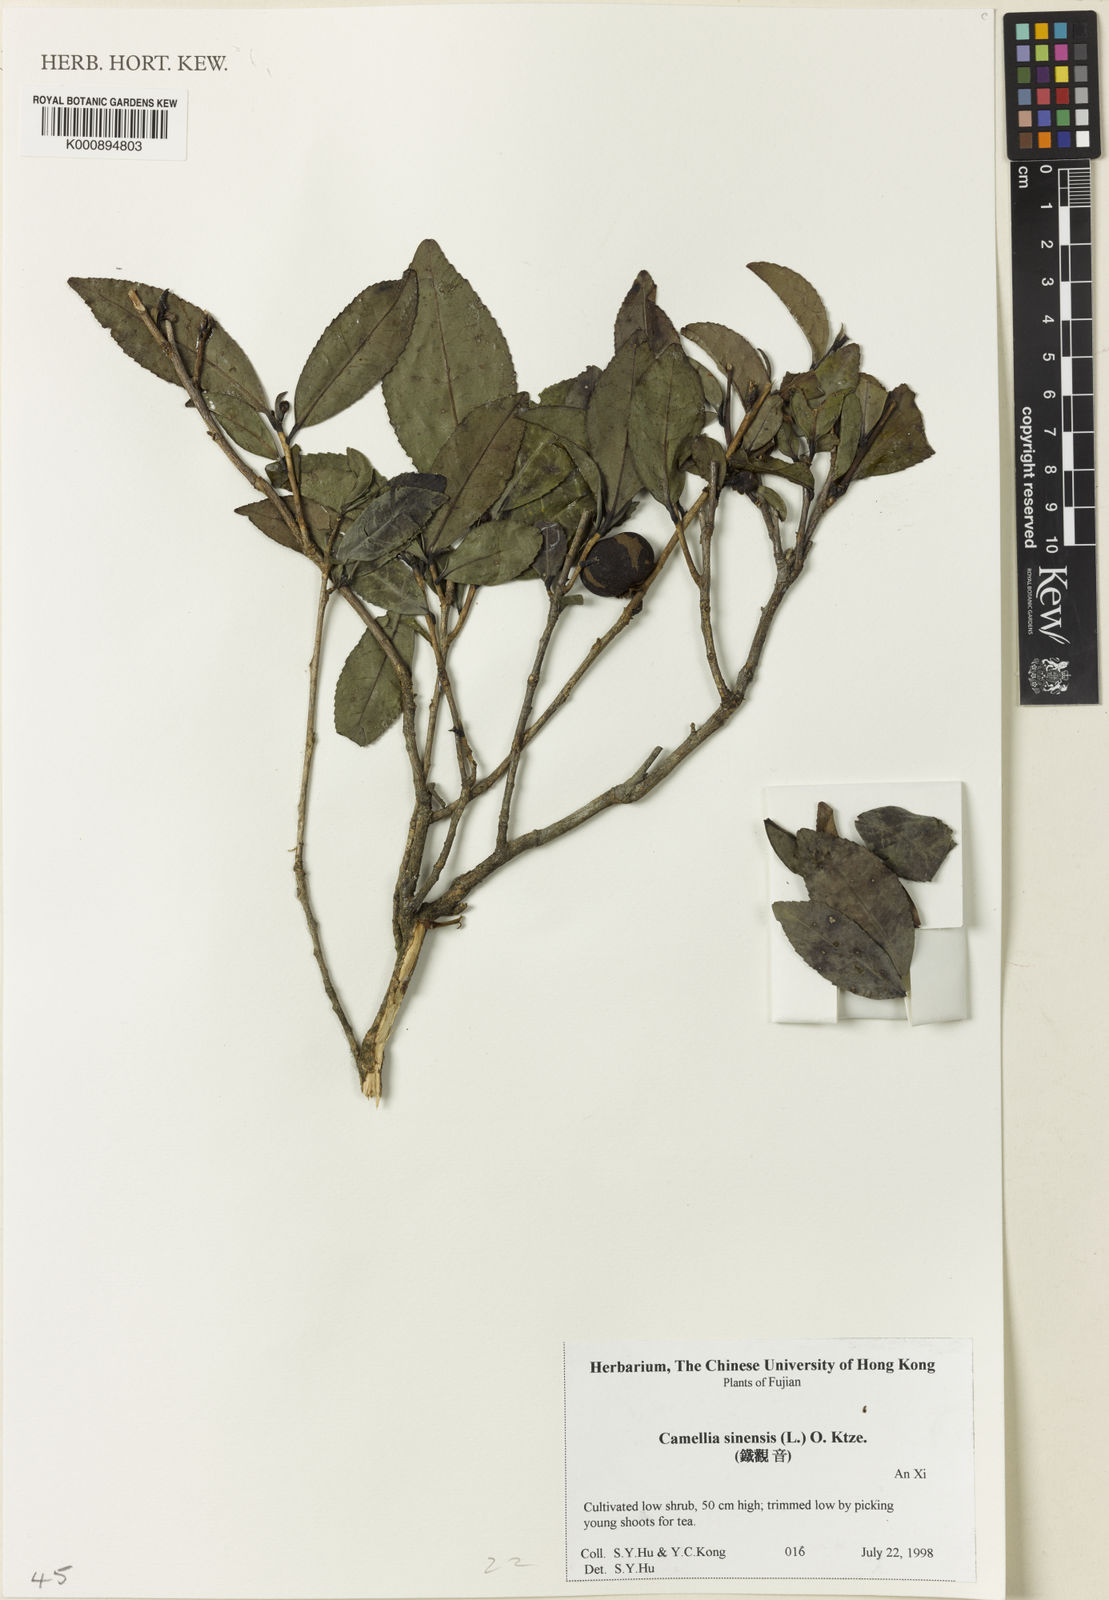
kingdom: Plantae
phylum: Tracheophyta
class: Magnoliopsida
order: Ericales
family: Theaceae
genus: Camellia
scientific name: Camellia sinensis
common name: Tea
